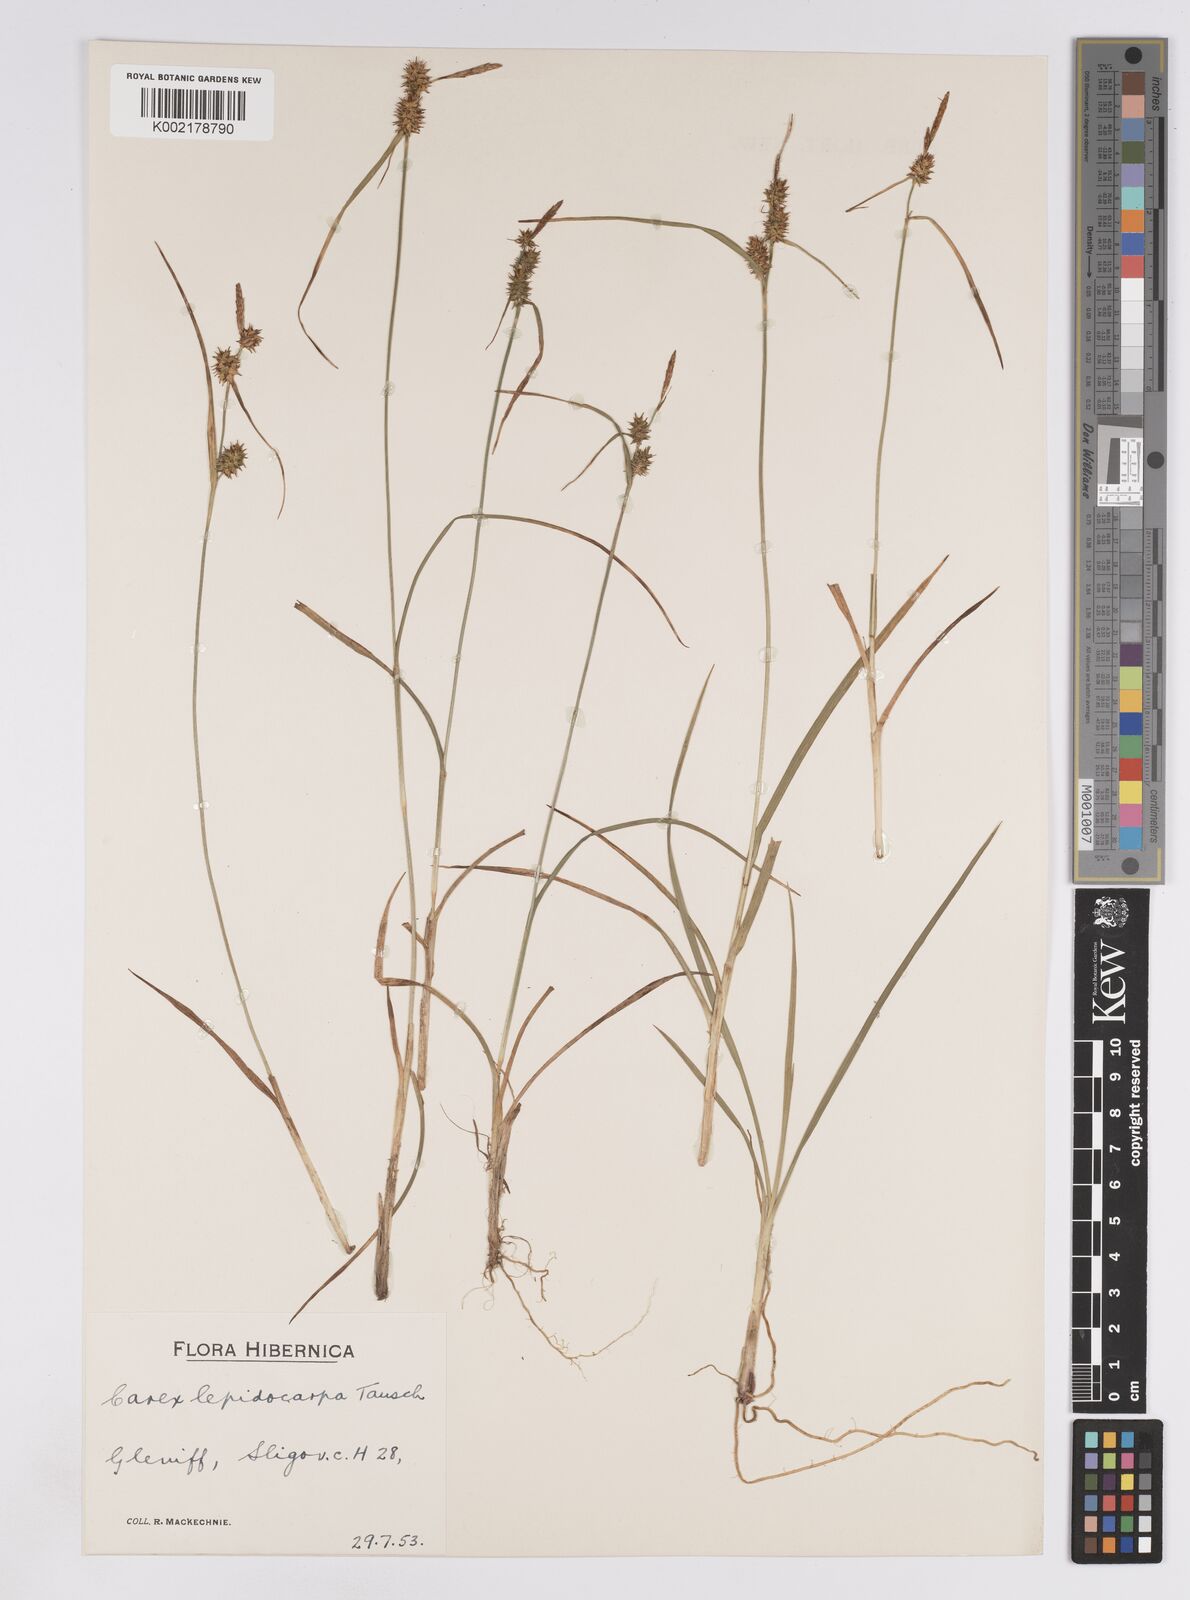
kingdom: Plantae
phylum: Tracheophyta
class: Liliopsida
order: Poales
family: Cyperaceae
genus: Carex
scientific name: Carex lepidocarpa
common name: Long-stalked yellow-sedge
